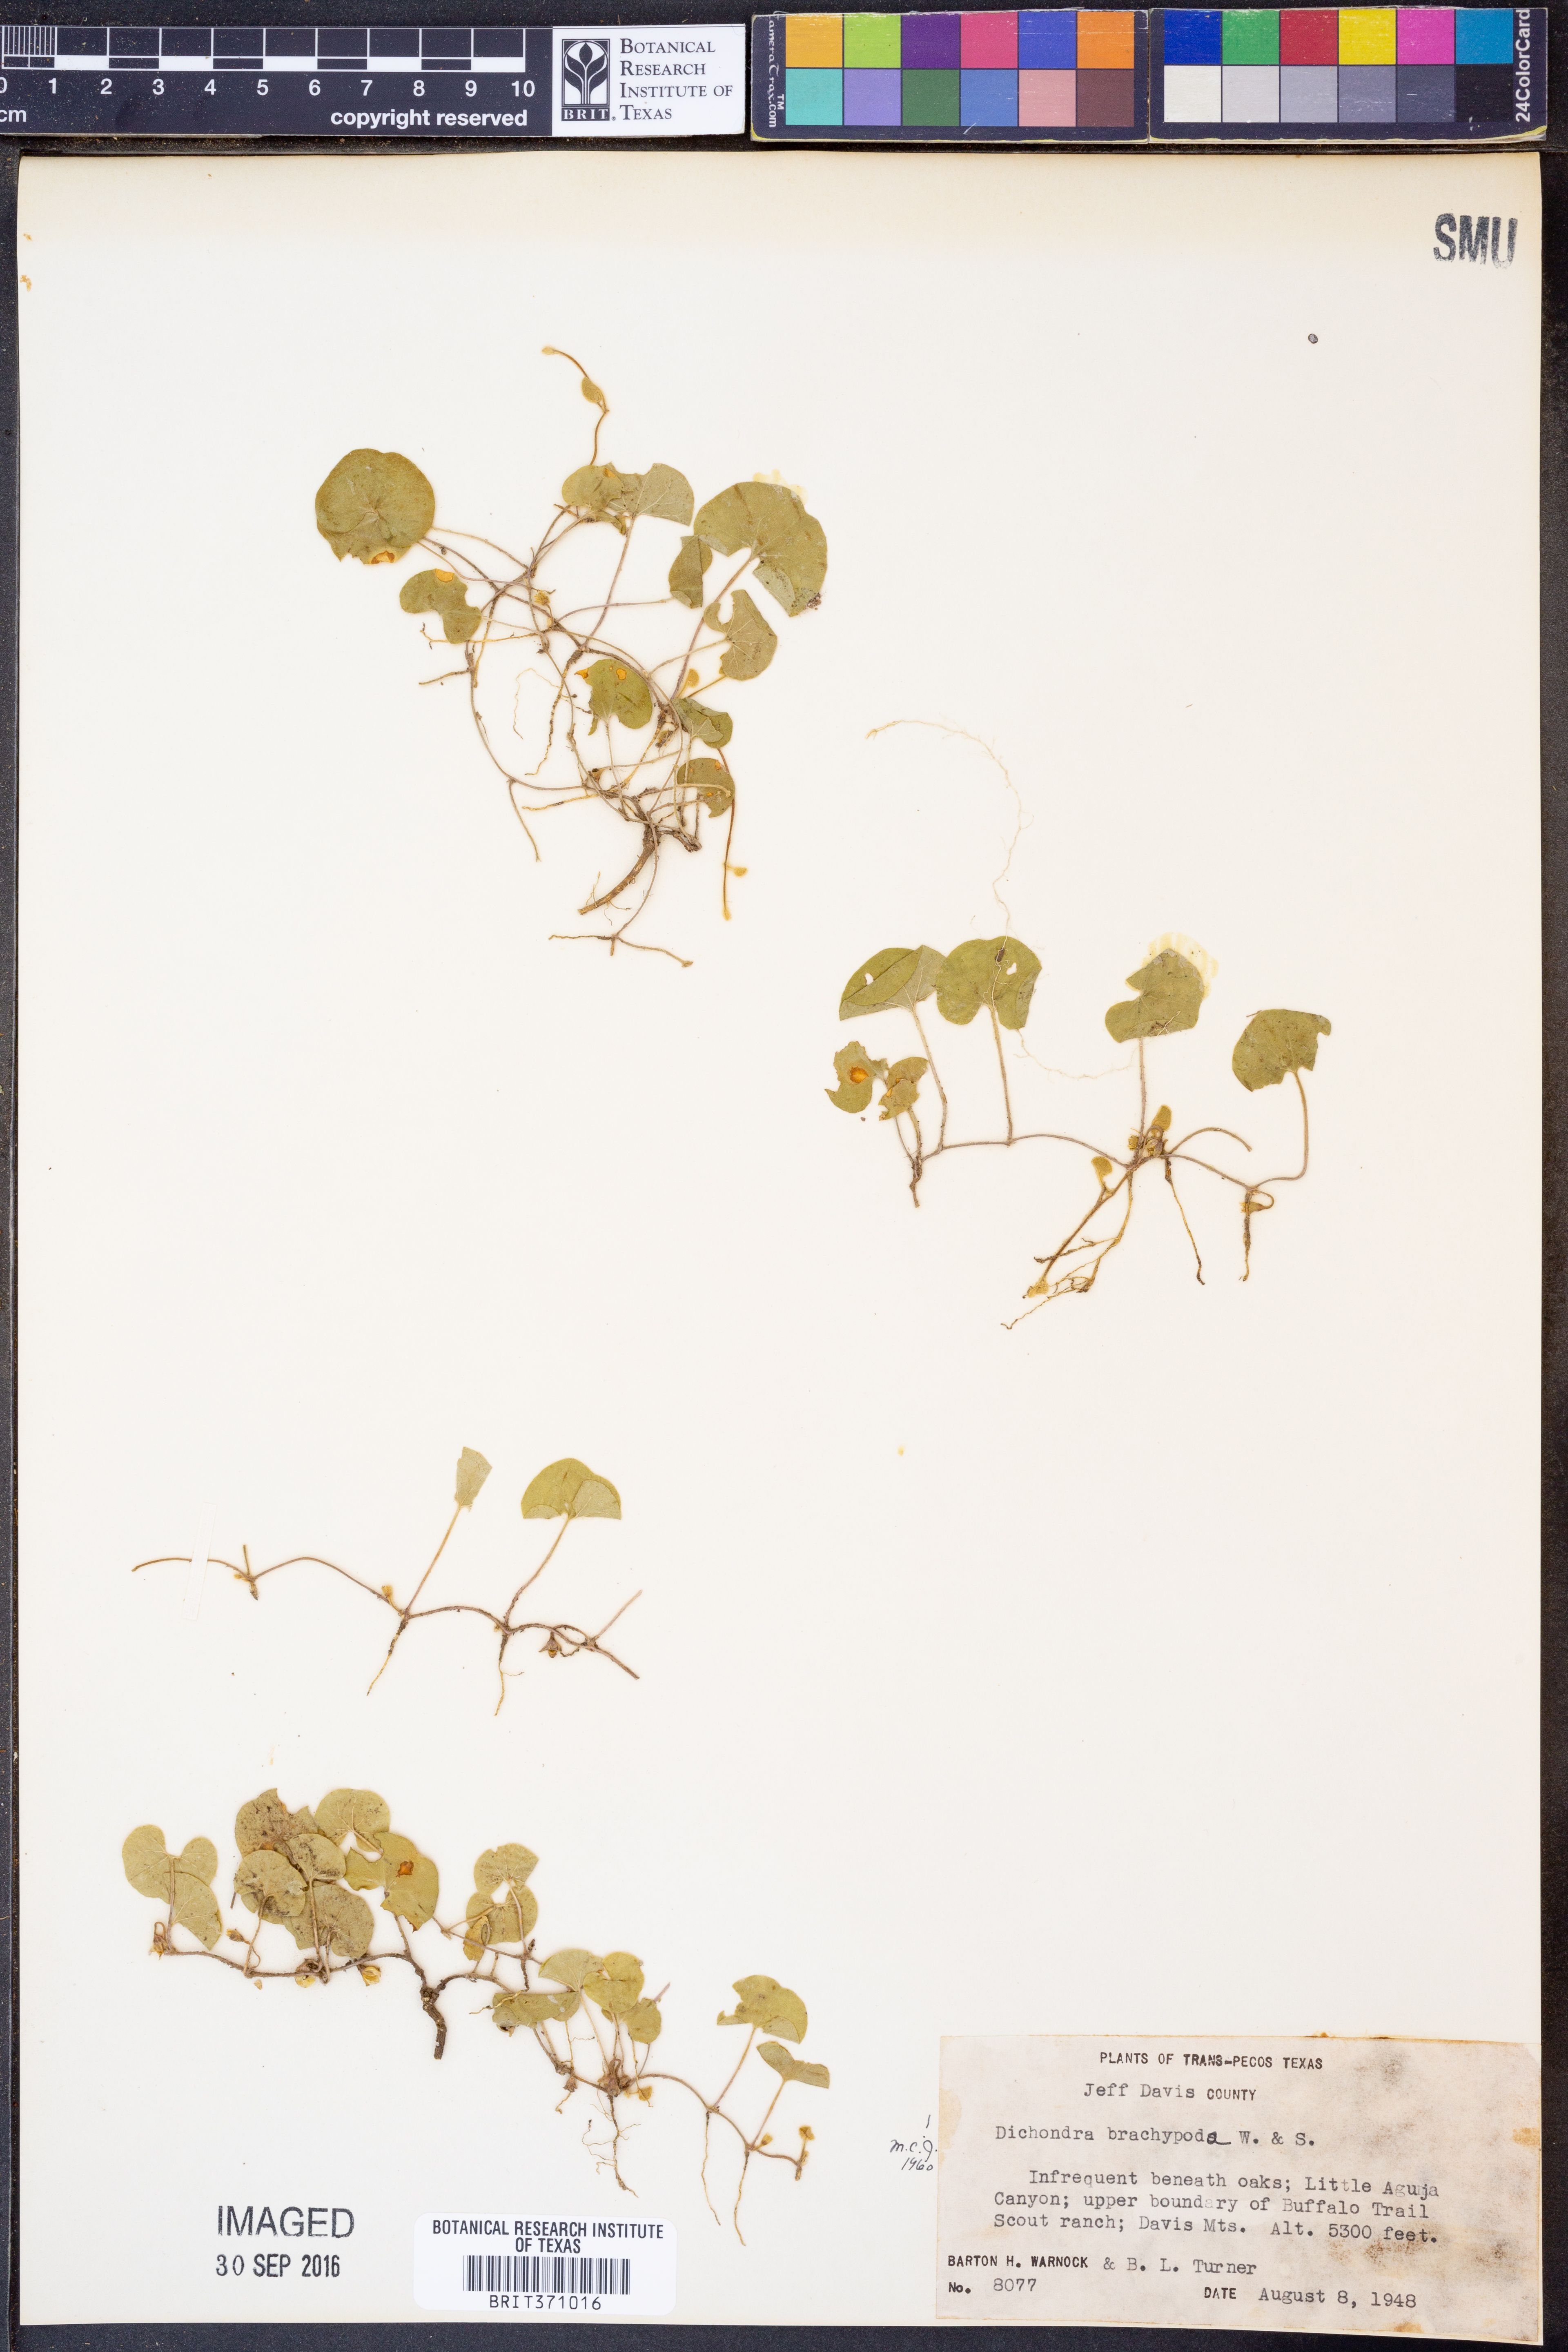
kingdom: Plantae
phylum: Tracheophyta
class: Magnoliopsida
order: Solanales
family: Convolvulaceae
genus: Dichondra
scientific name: Dichondra brachypoda
